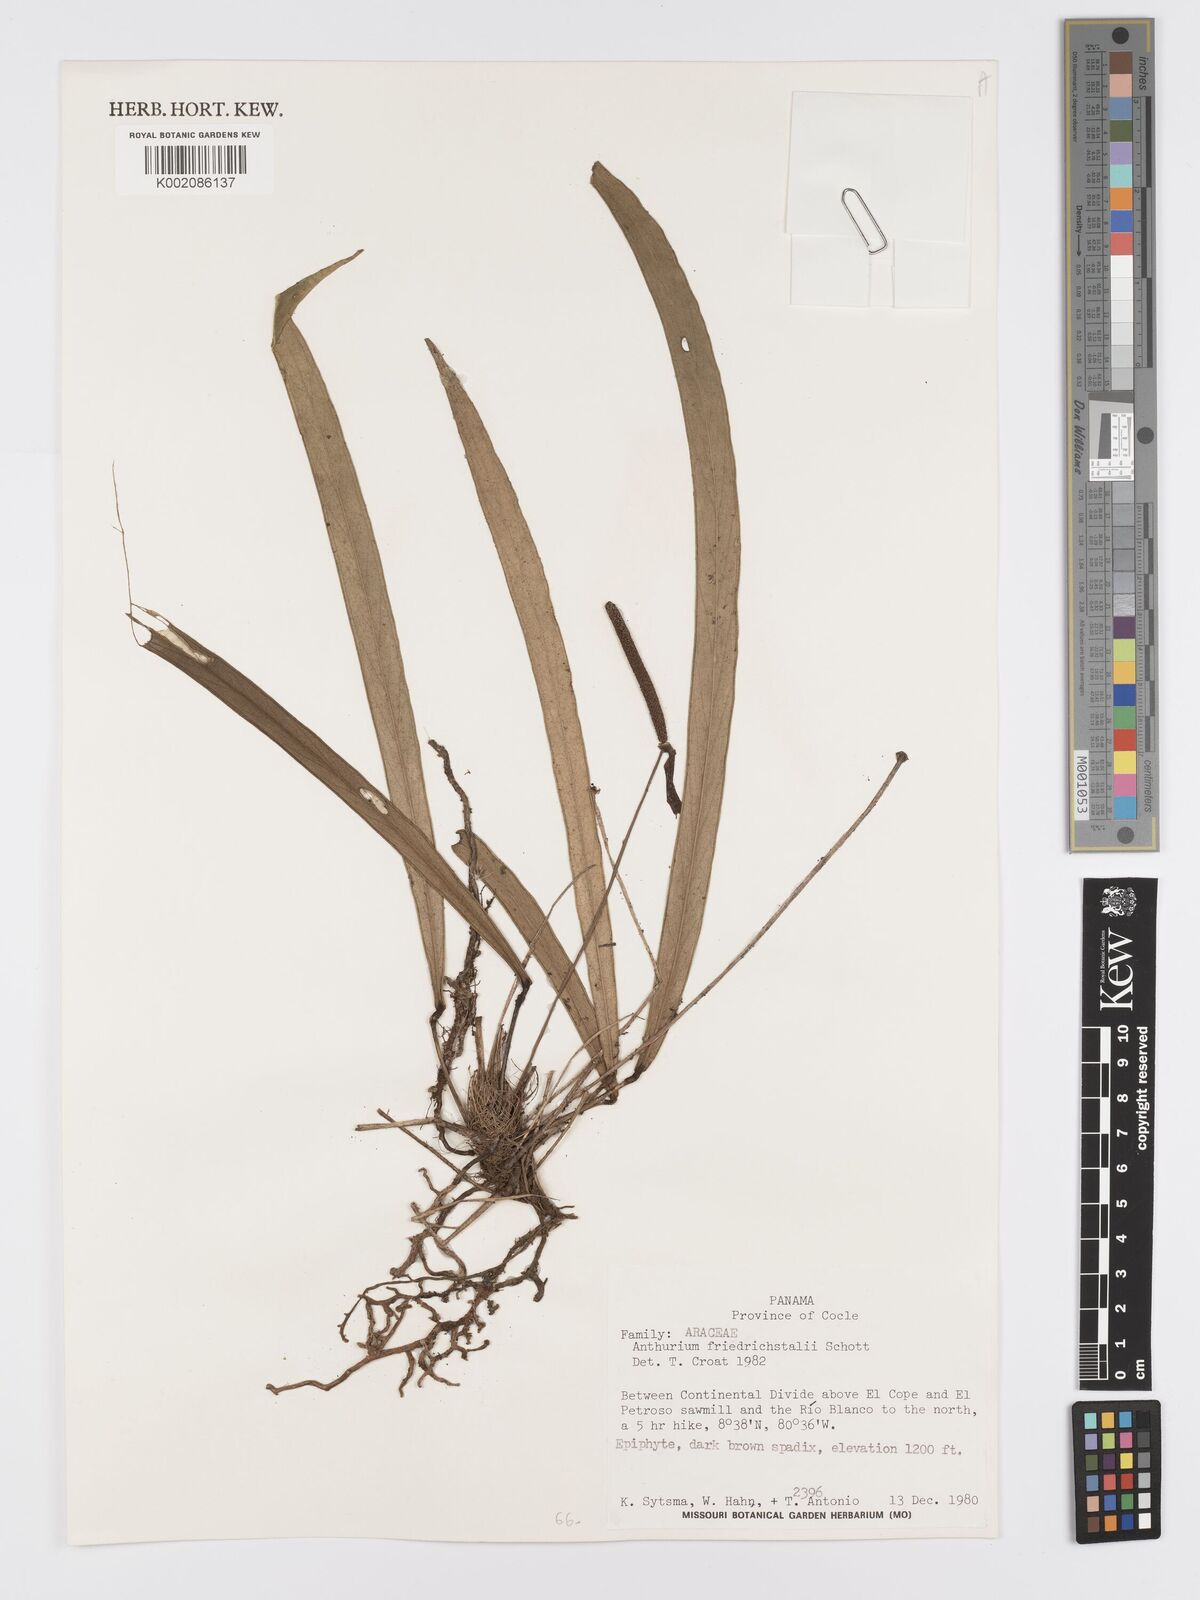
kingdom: Plantae
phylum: Tracheophyta
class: Liliopsida
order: Alismatales
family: Araceae
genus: Anthurium
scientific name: Anthurium friedrichsthalii
